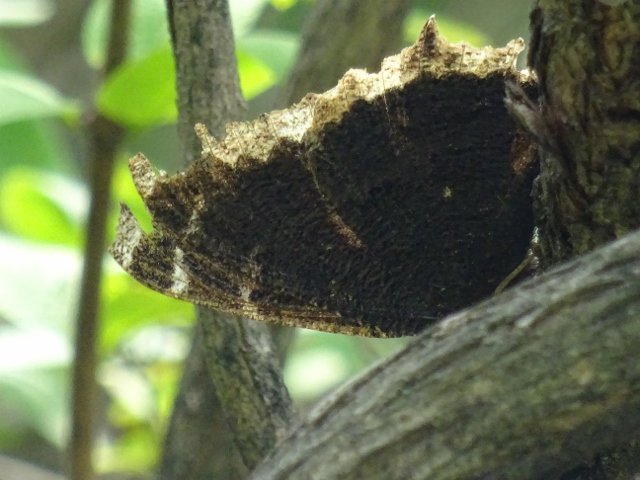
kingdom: Animalia
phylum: Arthropoda
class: Insecta
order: Lepidoptera
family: Nymphalidae
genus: Nymphalis
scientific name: Nymphalis antiopa
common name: Mourning Cloak
